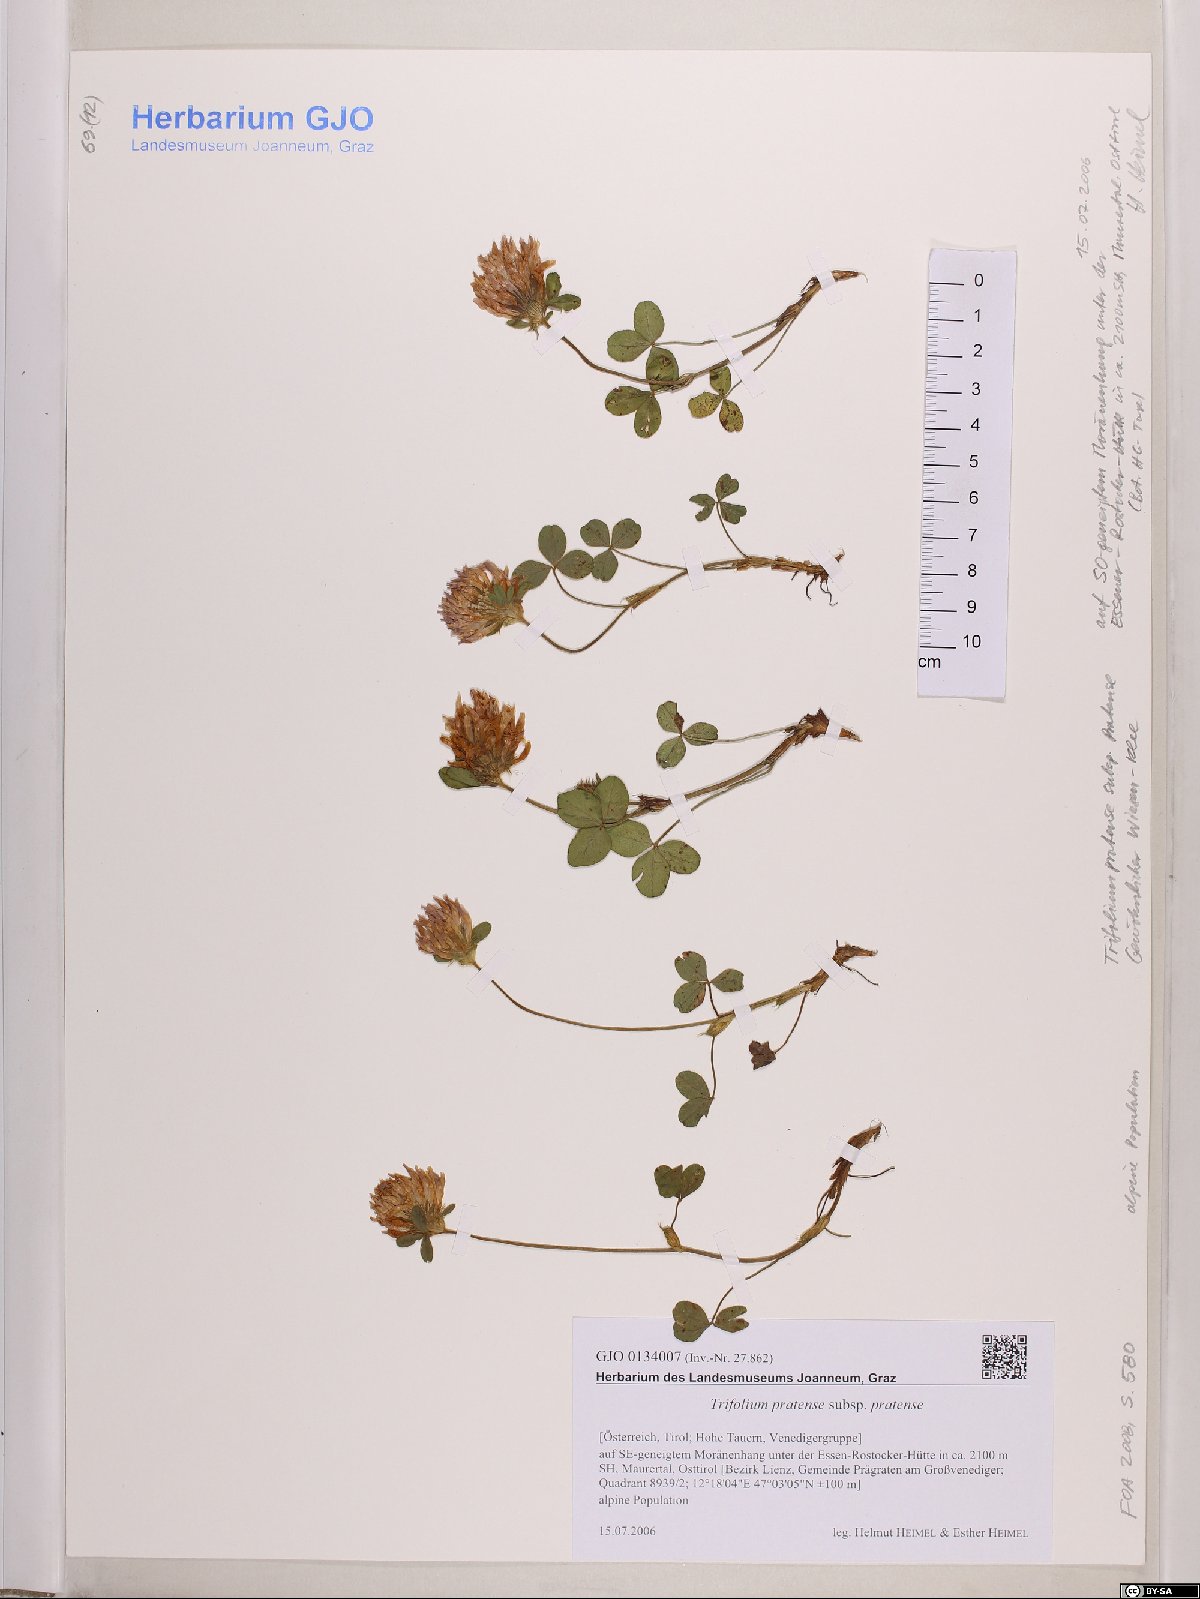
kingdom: Plantae
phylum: Tracheophyta
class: Magnoliopsida
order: Fabales
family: Fabaceae
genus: Trifolium
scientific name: Trifolium pratense
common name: Red clover
